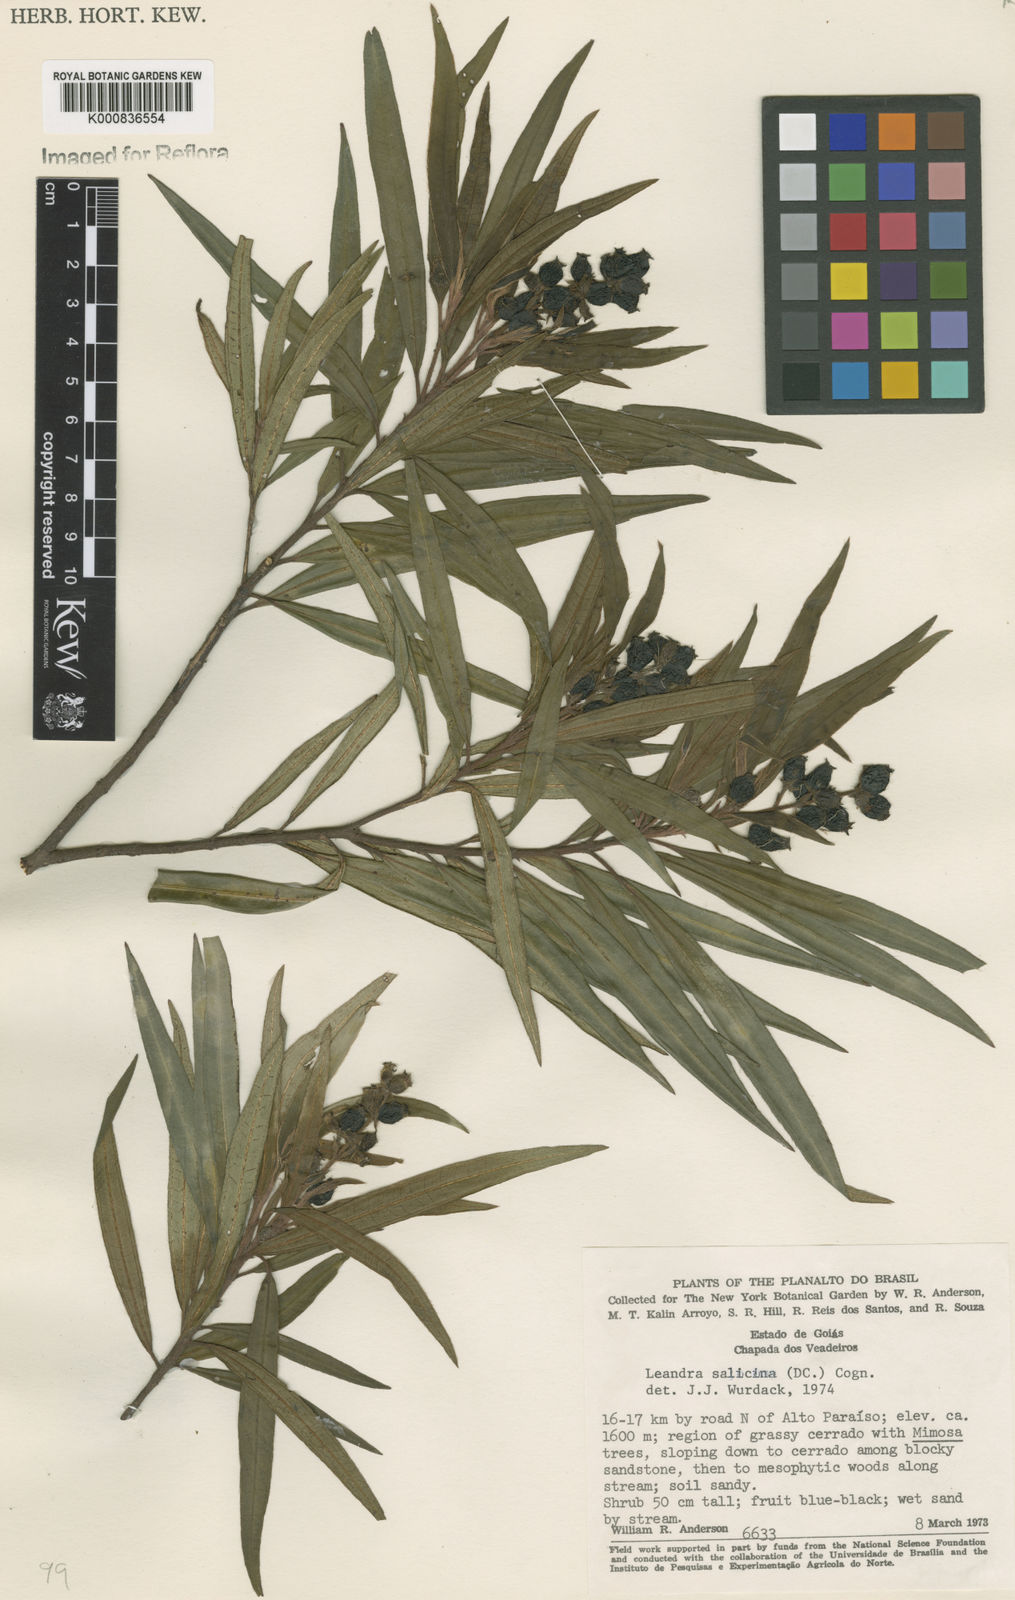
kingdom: Plantae
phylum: Tracheophyta
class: Magnoliopsida
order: Myrtales
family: Melastomataceae
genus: Miconia
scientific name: Miconia salicina
